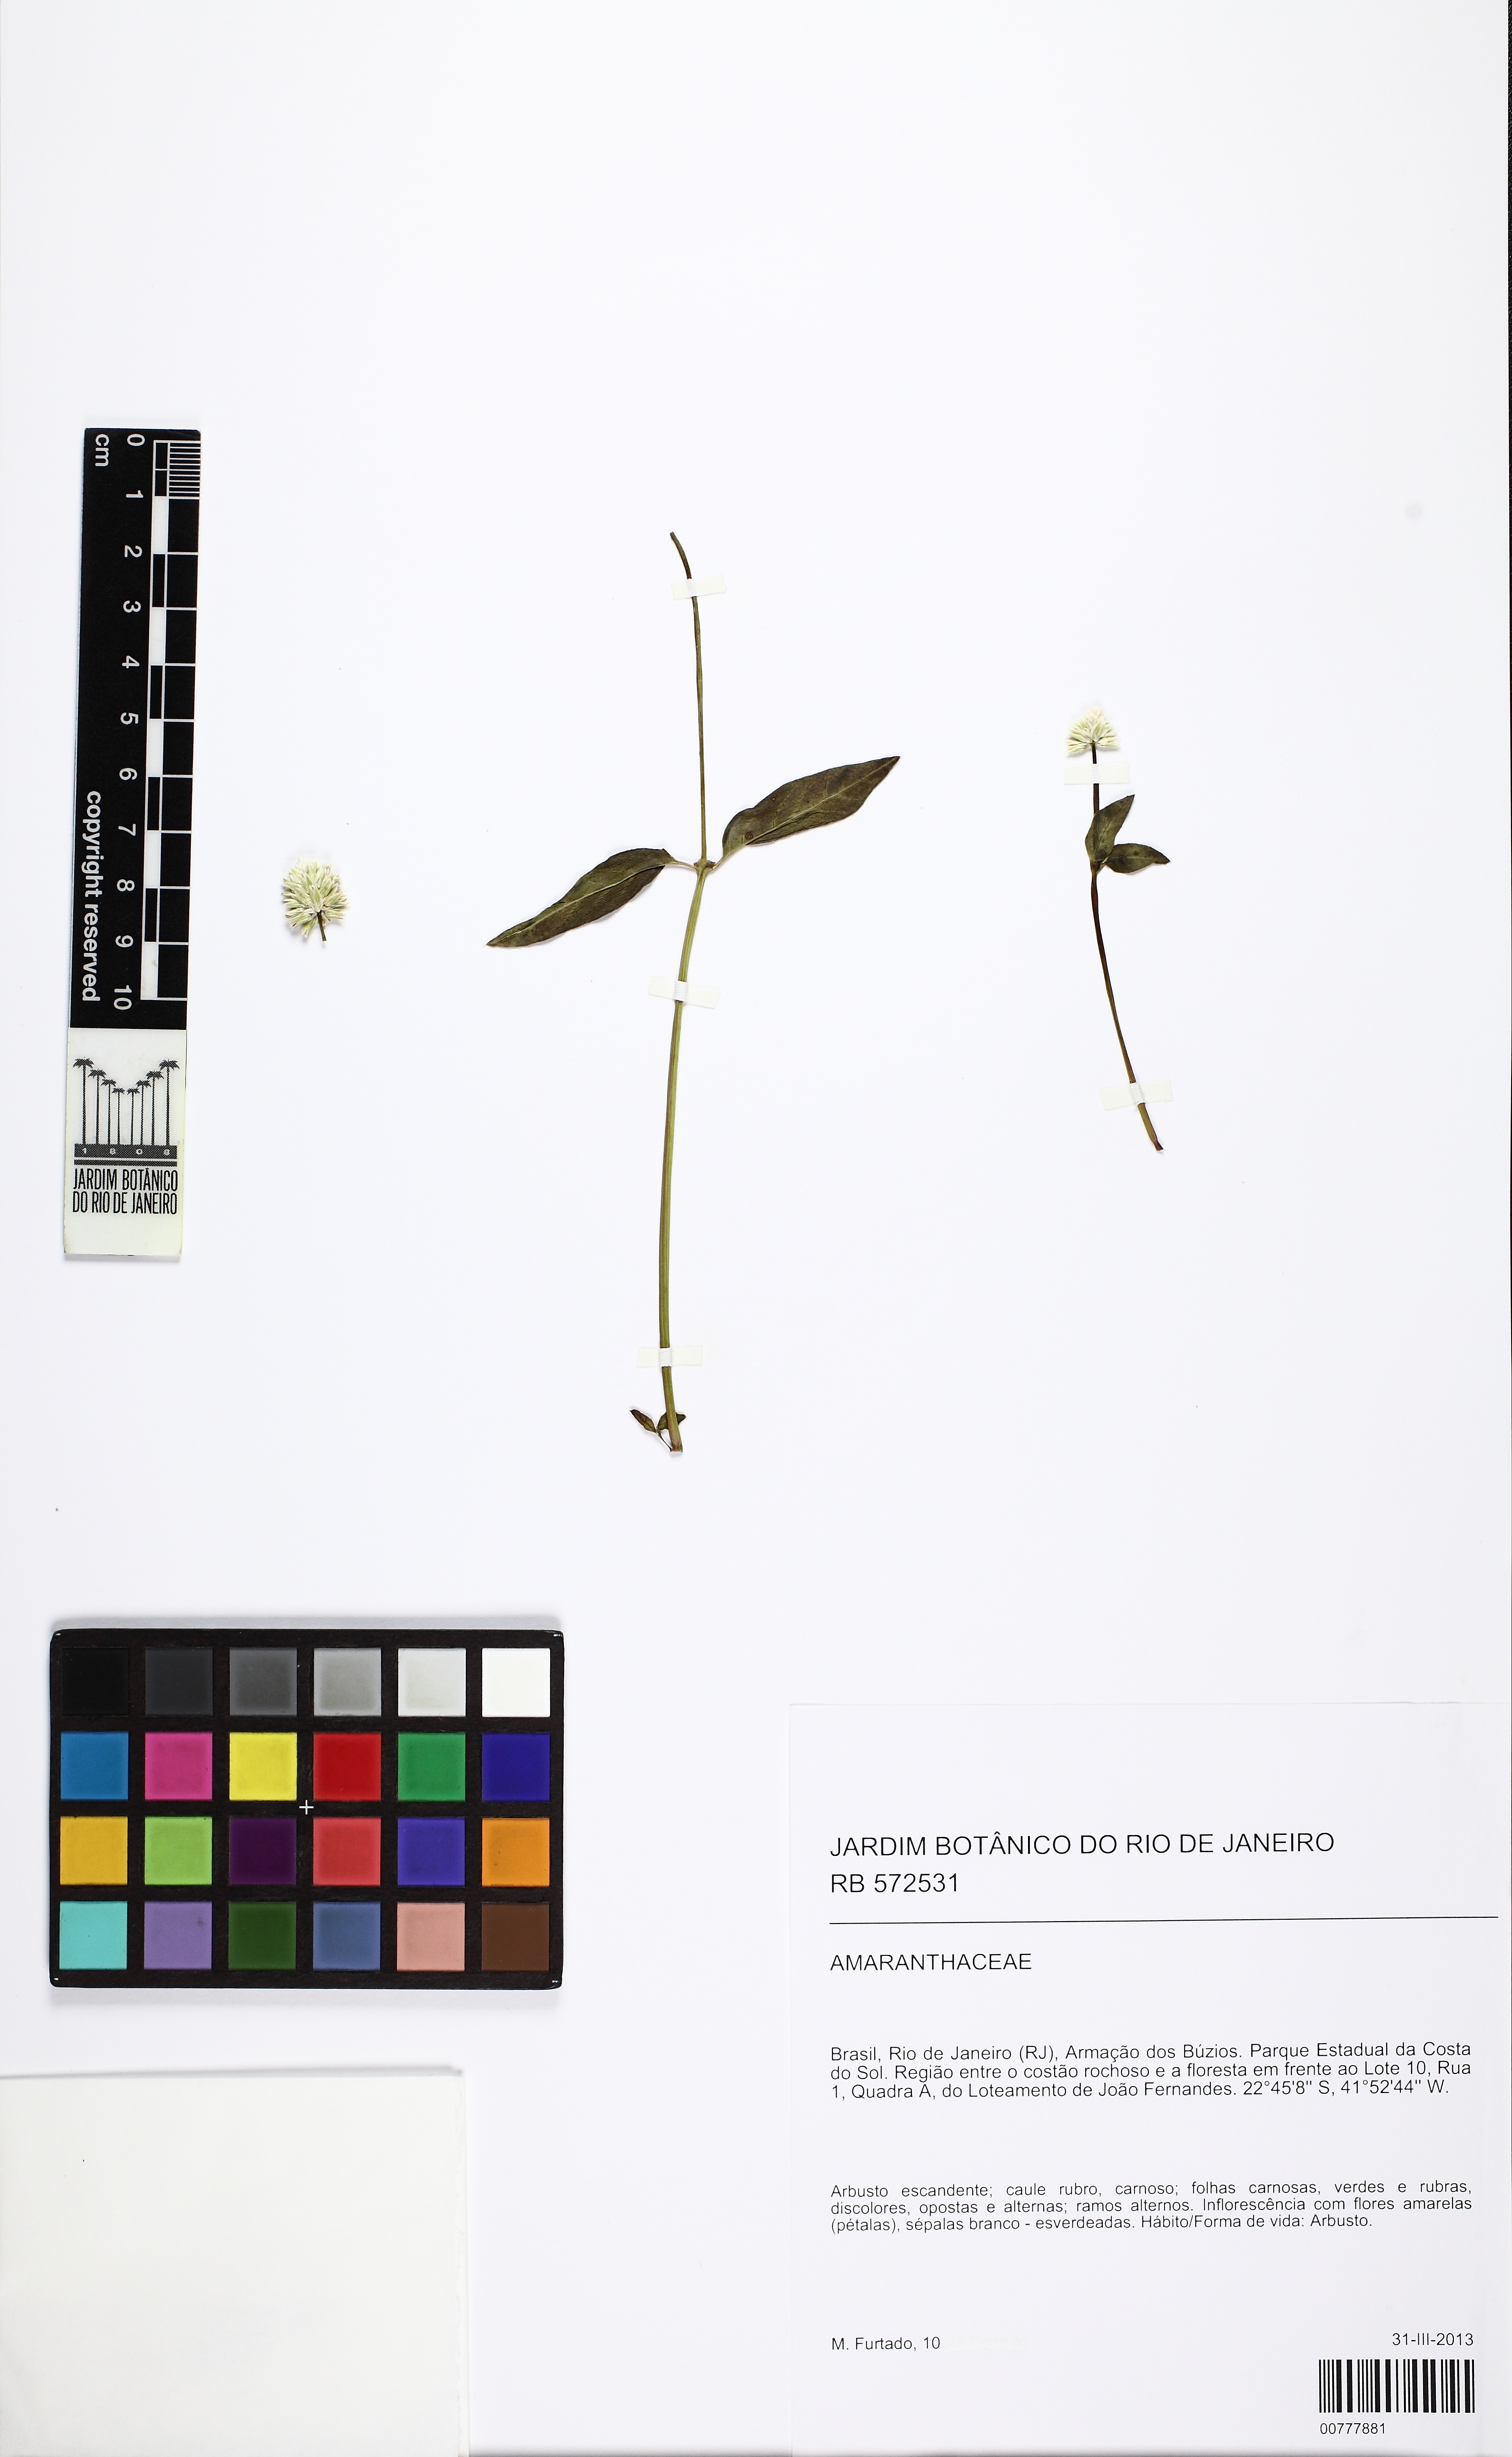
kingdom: Plantae
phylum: Tracheophyta
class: Magnoliopsida
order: Caryophyllales
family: Amaranthaceae
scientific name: Amaranthaceae
